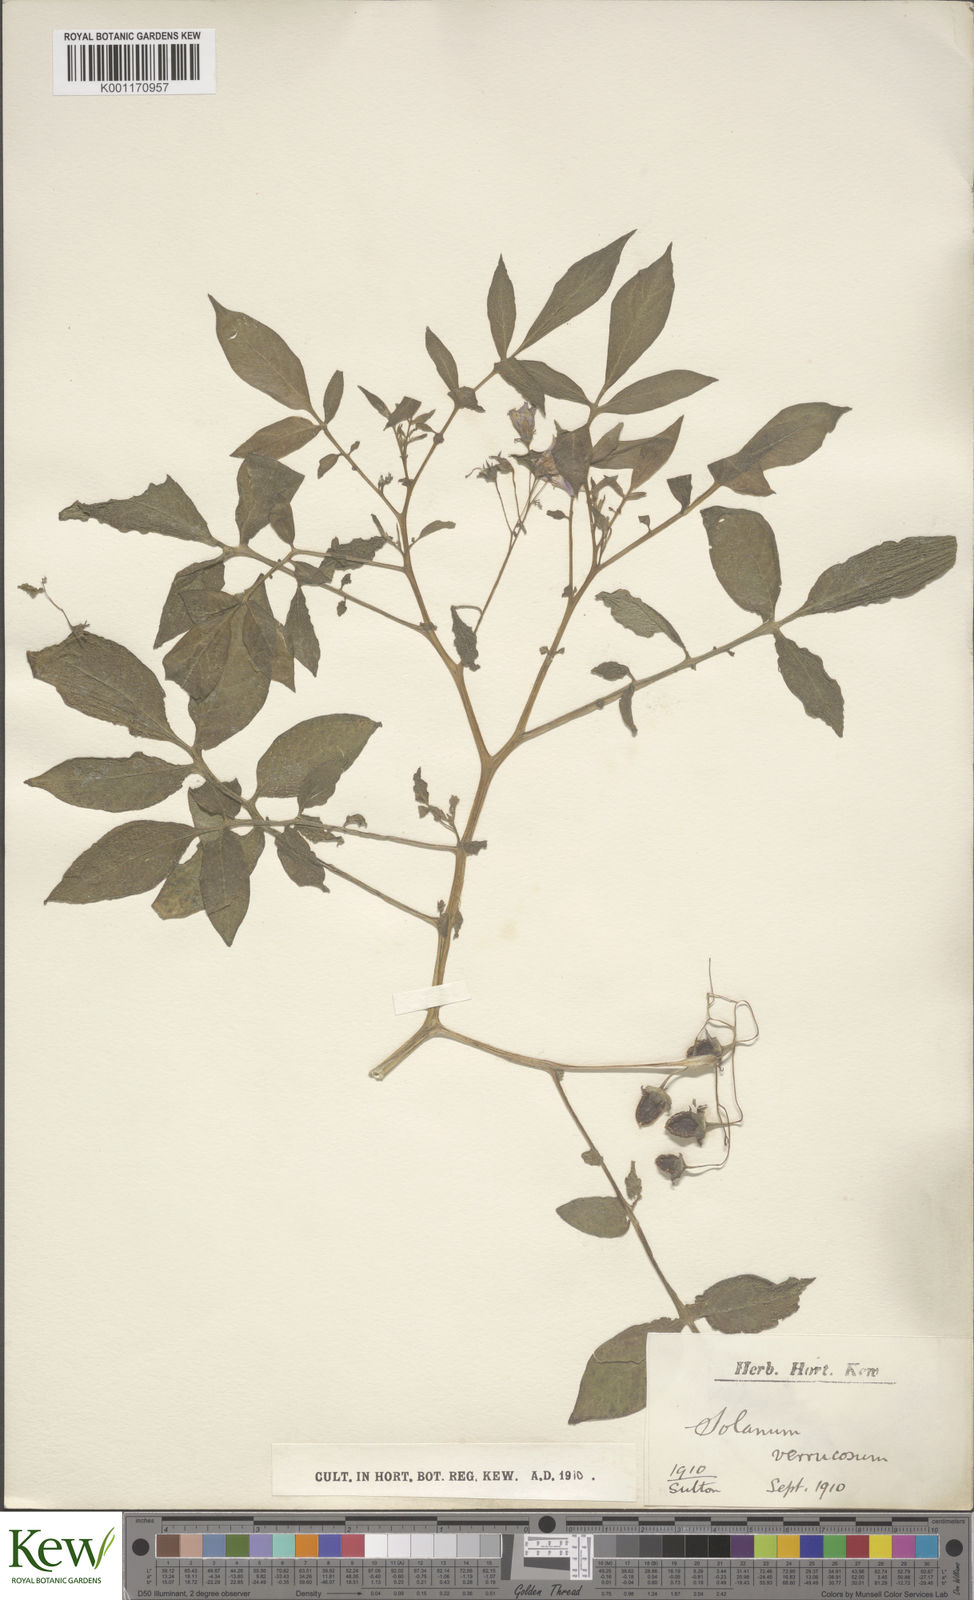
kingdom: Plantae
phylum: Tracheophyta
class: Magnoliopsida
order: Solanales
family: Solanaceae
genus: Solanum
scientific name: Solanum verrucosum
